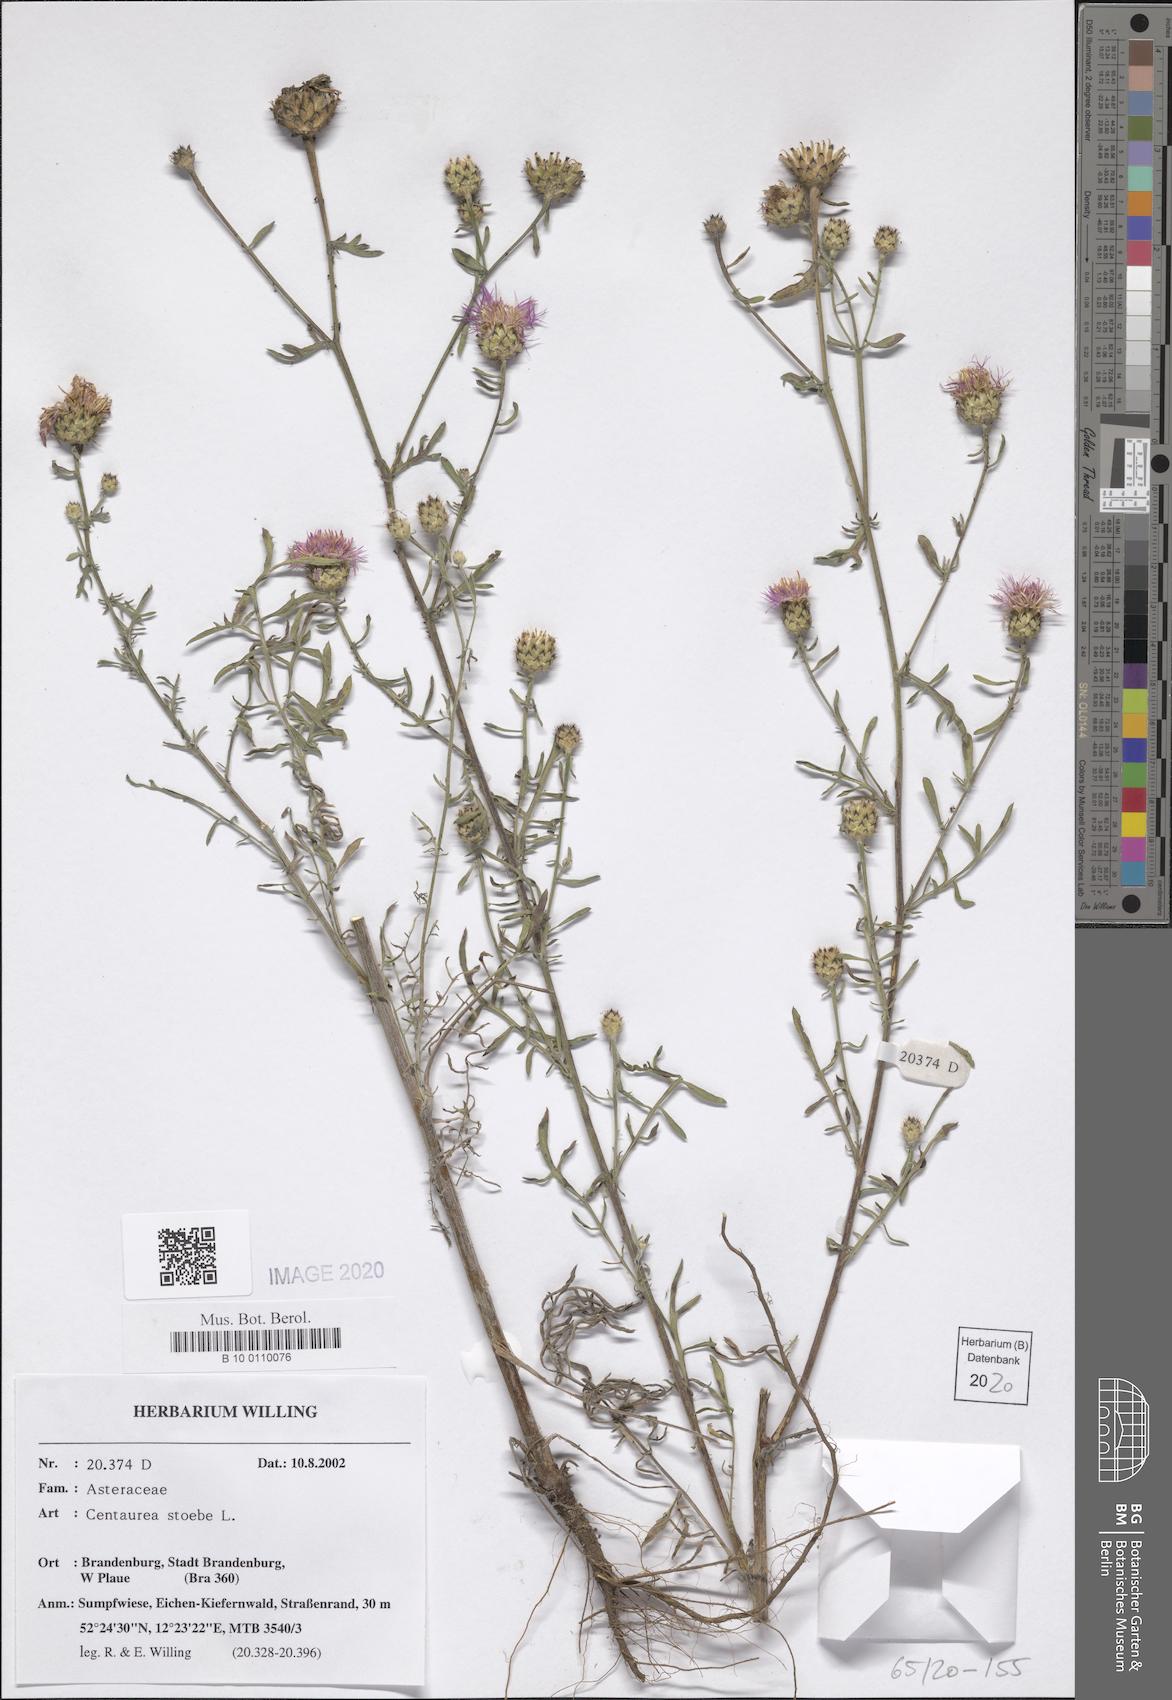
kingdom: Plantae
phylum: Tracheophyta
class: Magnoliopsida
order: Asterales
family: Asteraceae
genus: Centaurea
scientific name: Centaurea stoebe
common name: Spotted knapweed
